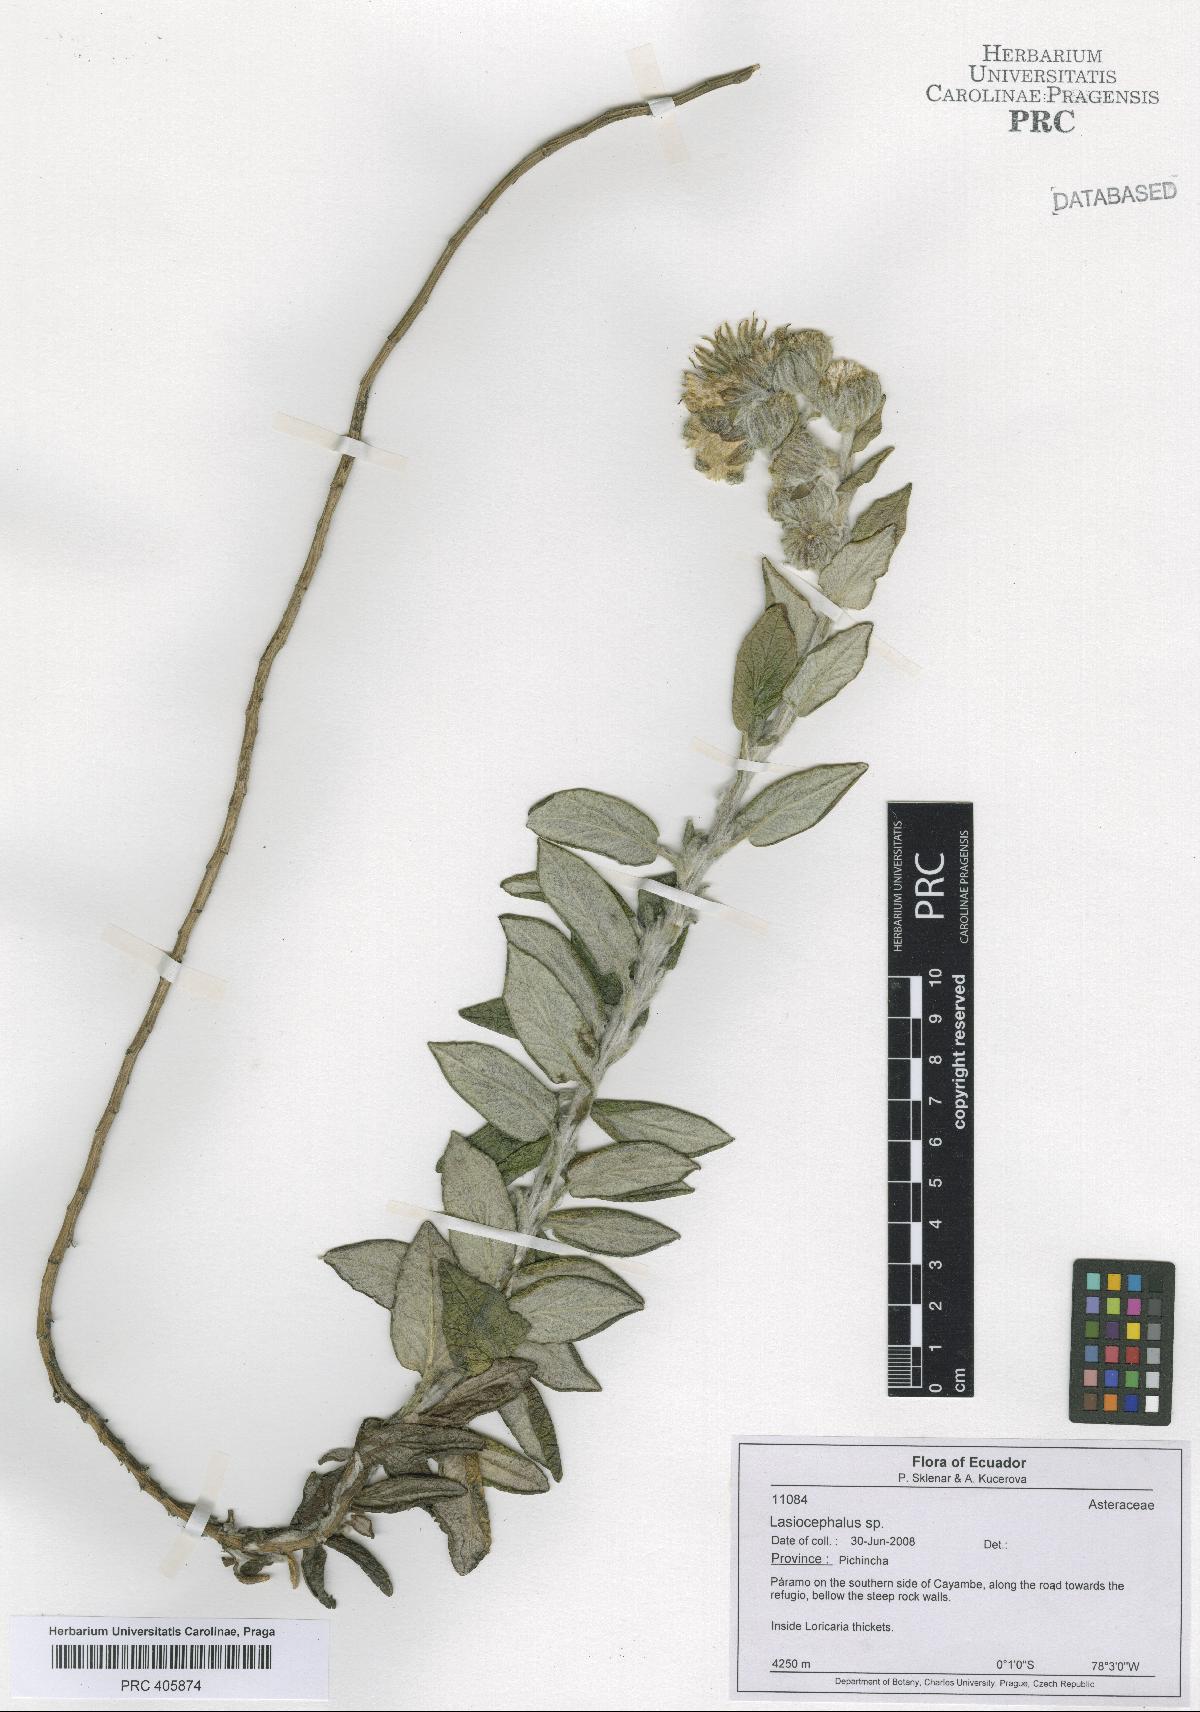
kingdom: Plantae
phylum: Tracheophyta
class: Magnoliopsida
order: Asterales
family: Asteraceae
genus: Lasiocephalus
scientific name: Lasiocephalus
